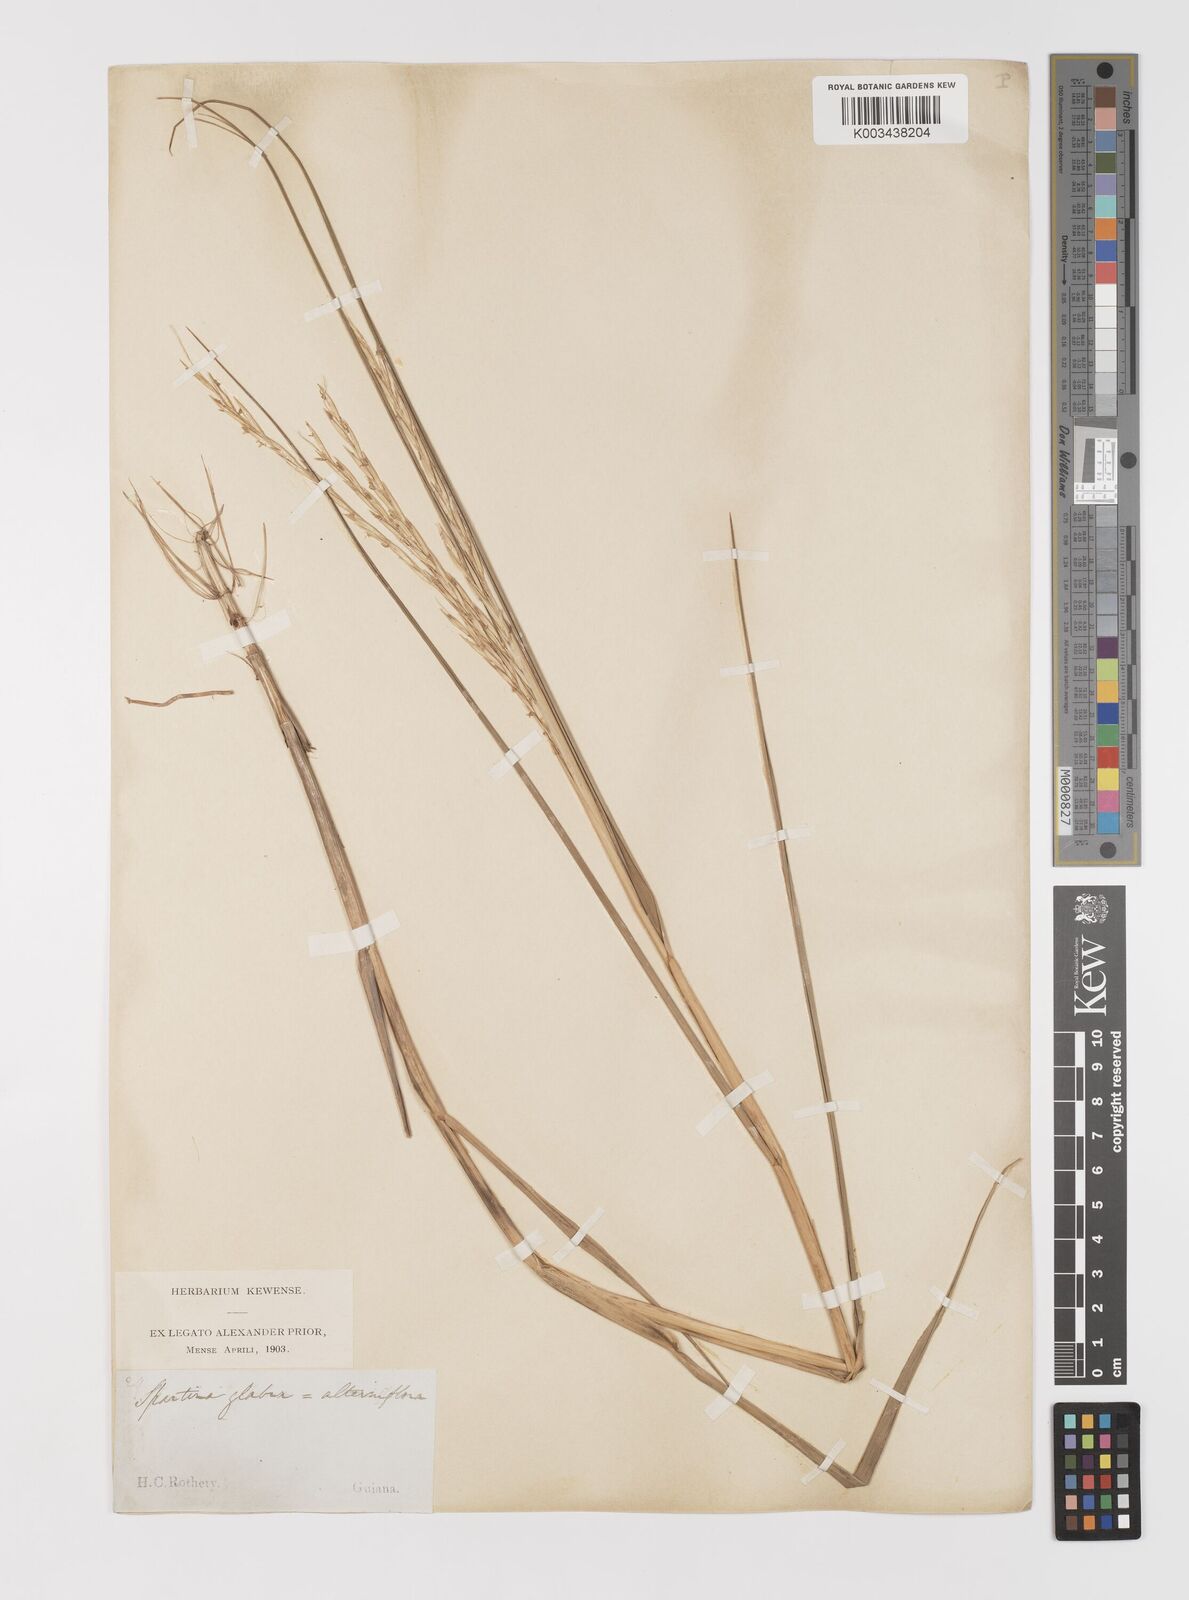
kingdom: Plantae
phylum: Tracheophyta
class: Liliopsida
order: Poales
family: Poaceae
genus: Sporobolus
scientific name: Sporobolus alterniflorus
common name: Atlantic cordgrass
